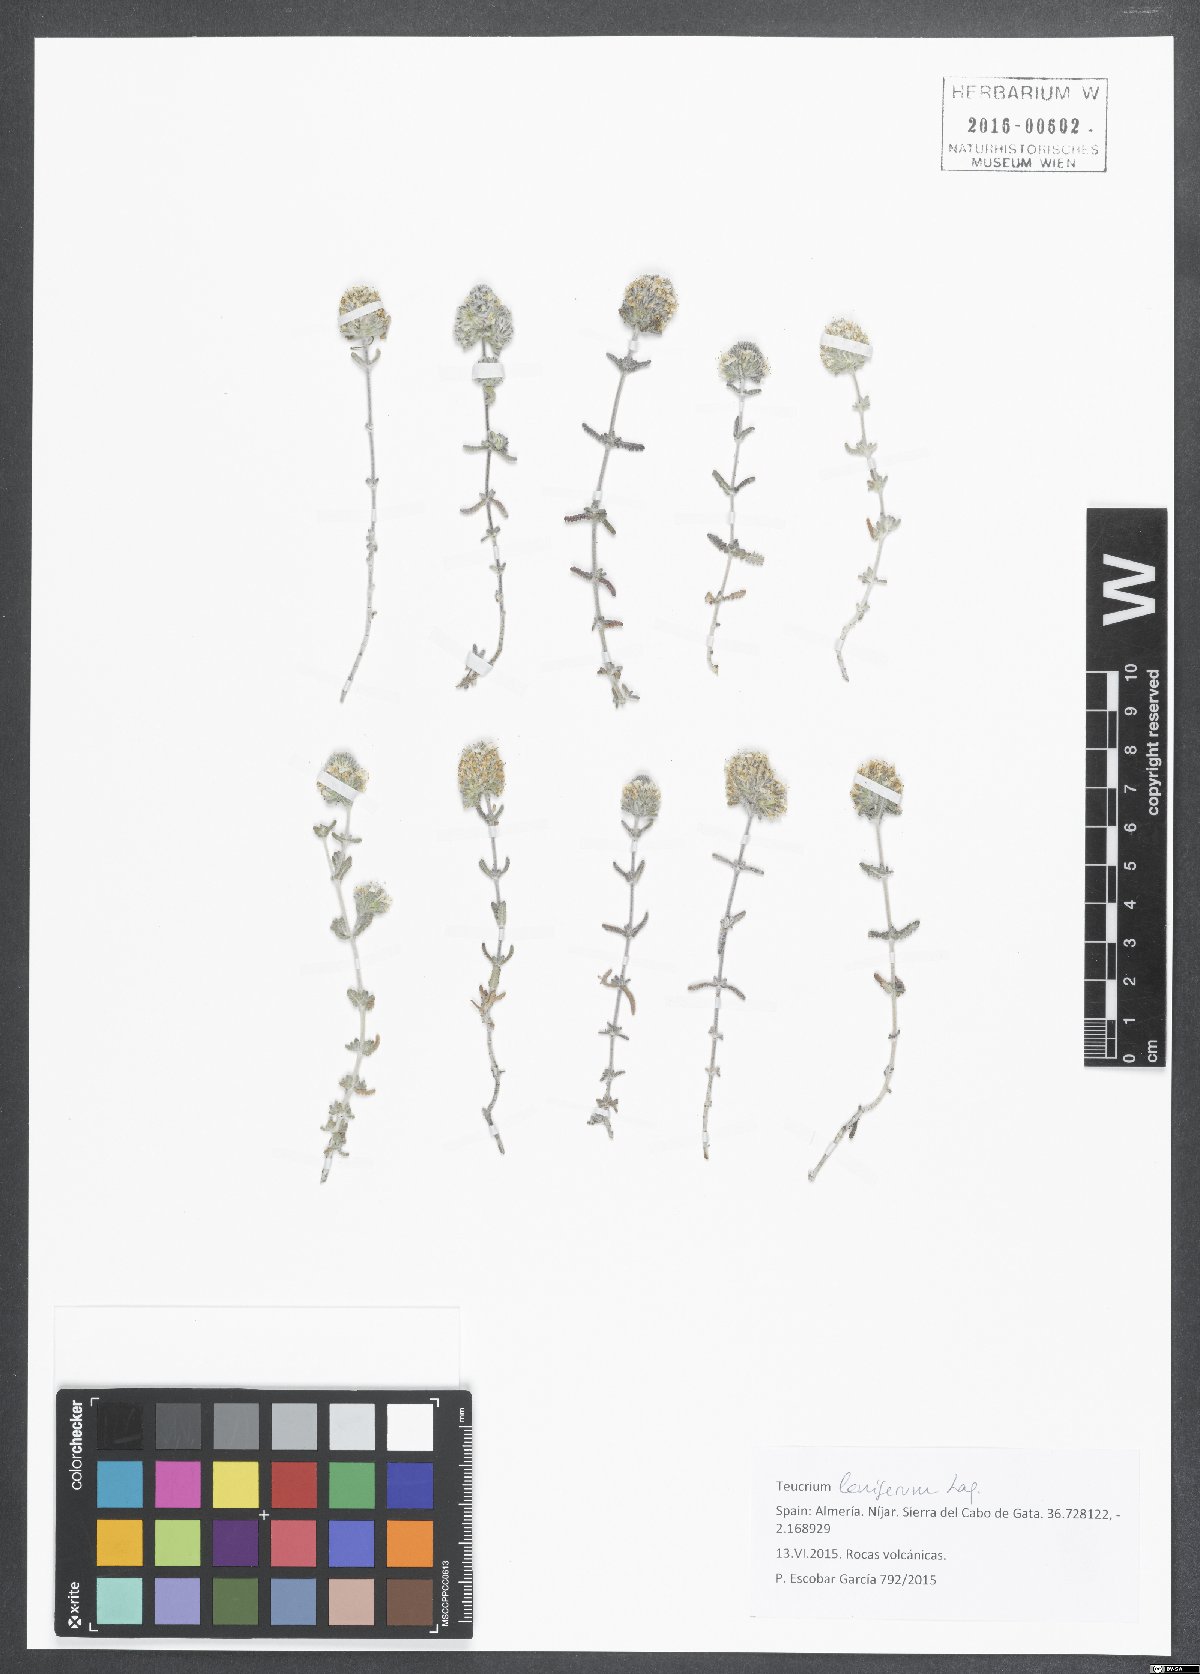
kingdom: Plantae
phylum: Tracheophyta
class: Magnoliopsida
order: Lamiales
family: Lamiaceae
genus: Teucrium
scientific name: Teucrium lanigerum
